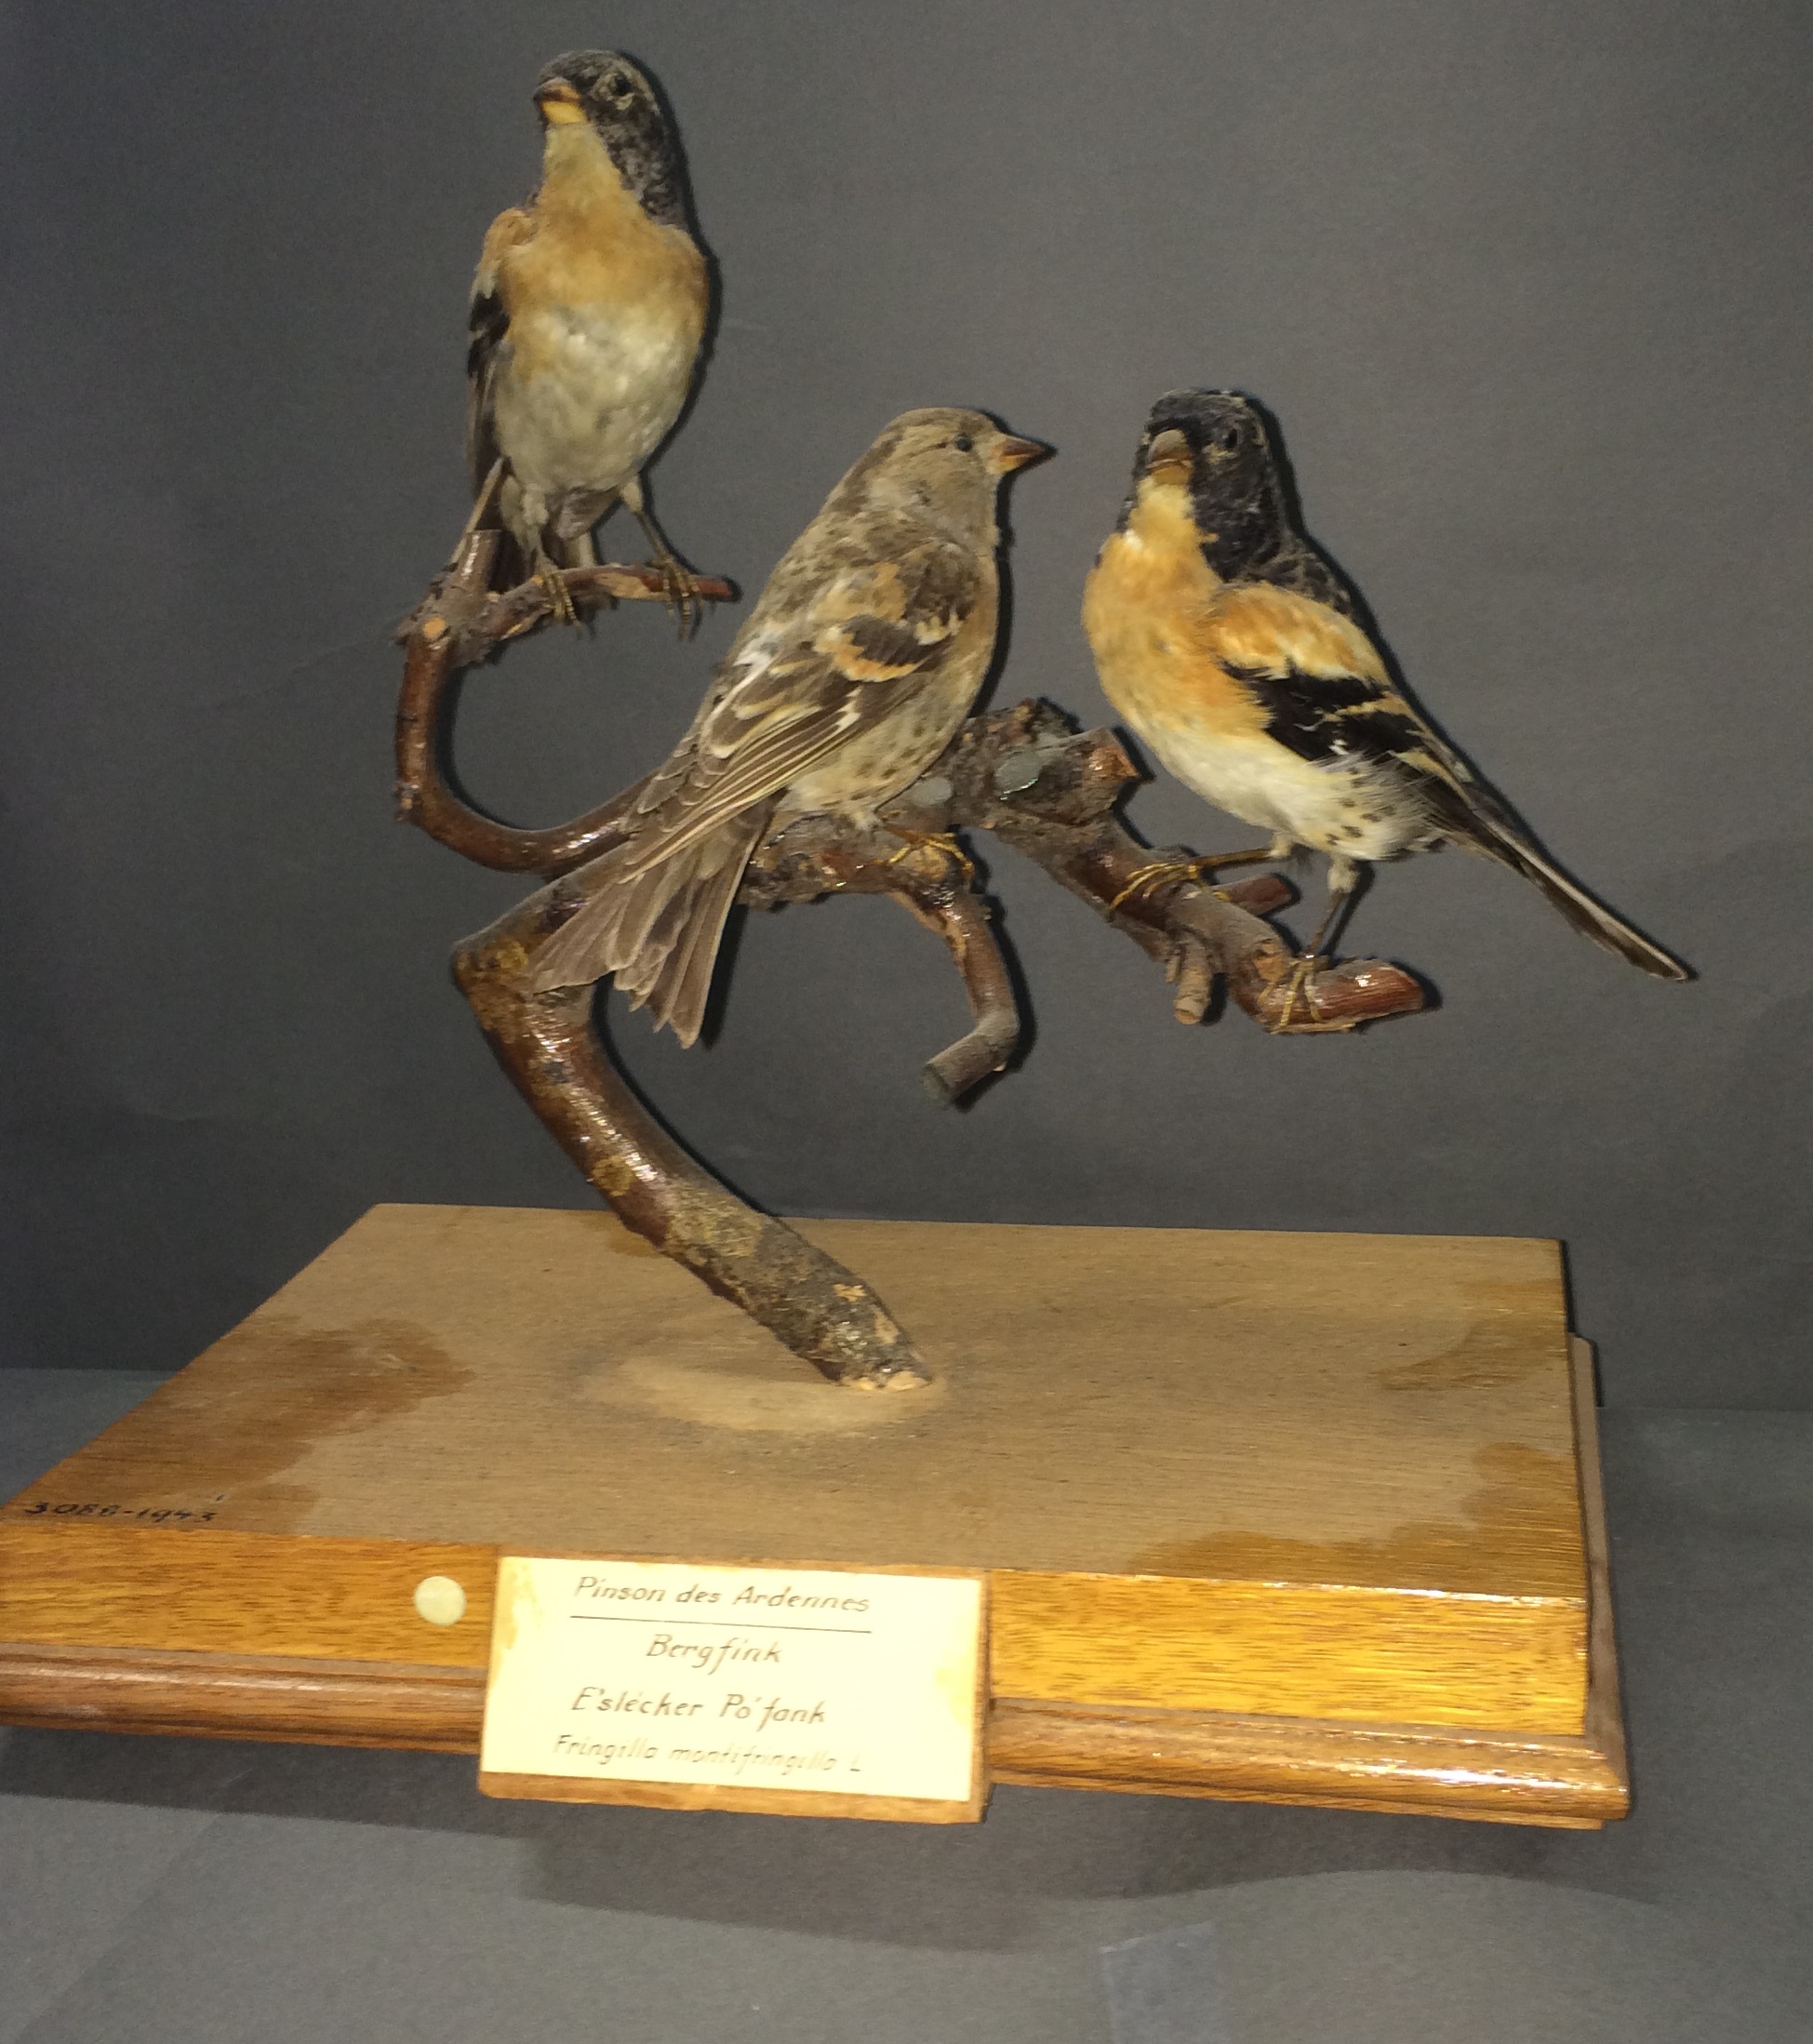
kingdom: Animalia
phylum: Chordata
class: Aves
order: Passeriformes
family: Fringillidae
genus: Fringilla
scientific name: Fringilla montifringilla
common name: Brambling
